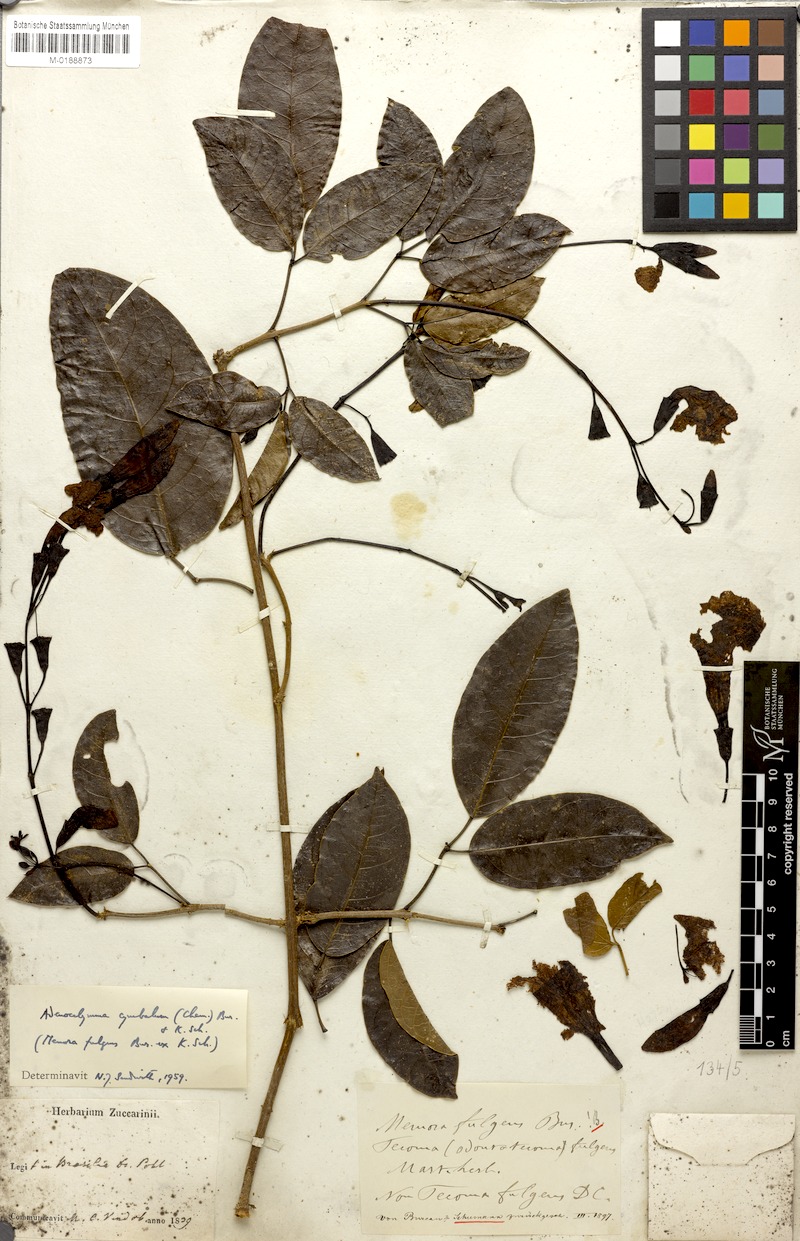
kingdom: Plantae
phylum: Tracheophyta
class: Magnoliopsida
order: Lamiales
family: Bignoniaceae
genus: Adenocalymma
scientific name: Adenocalymma cymbalum
